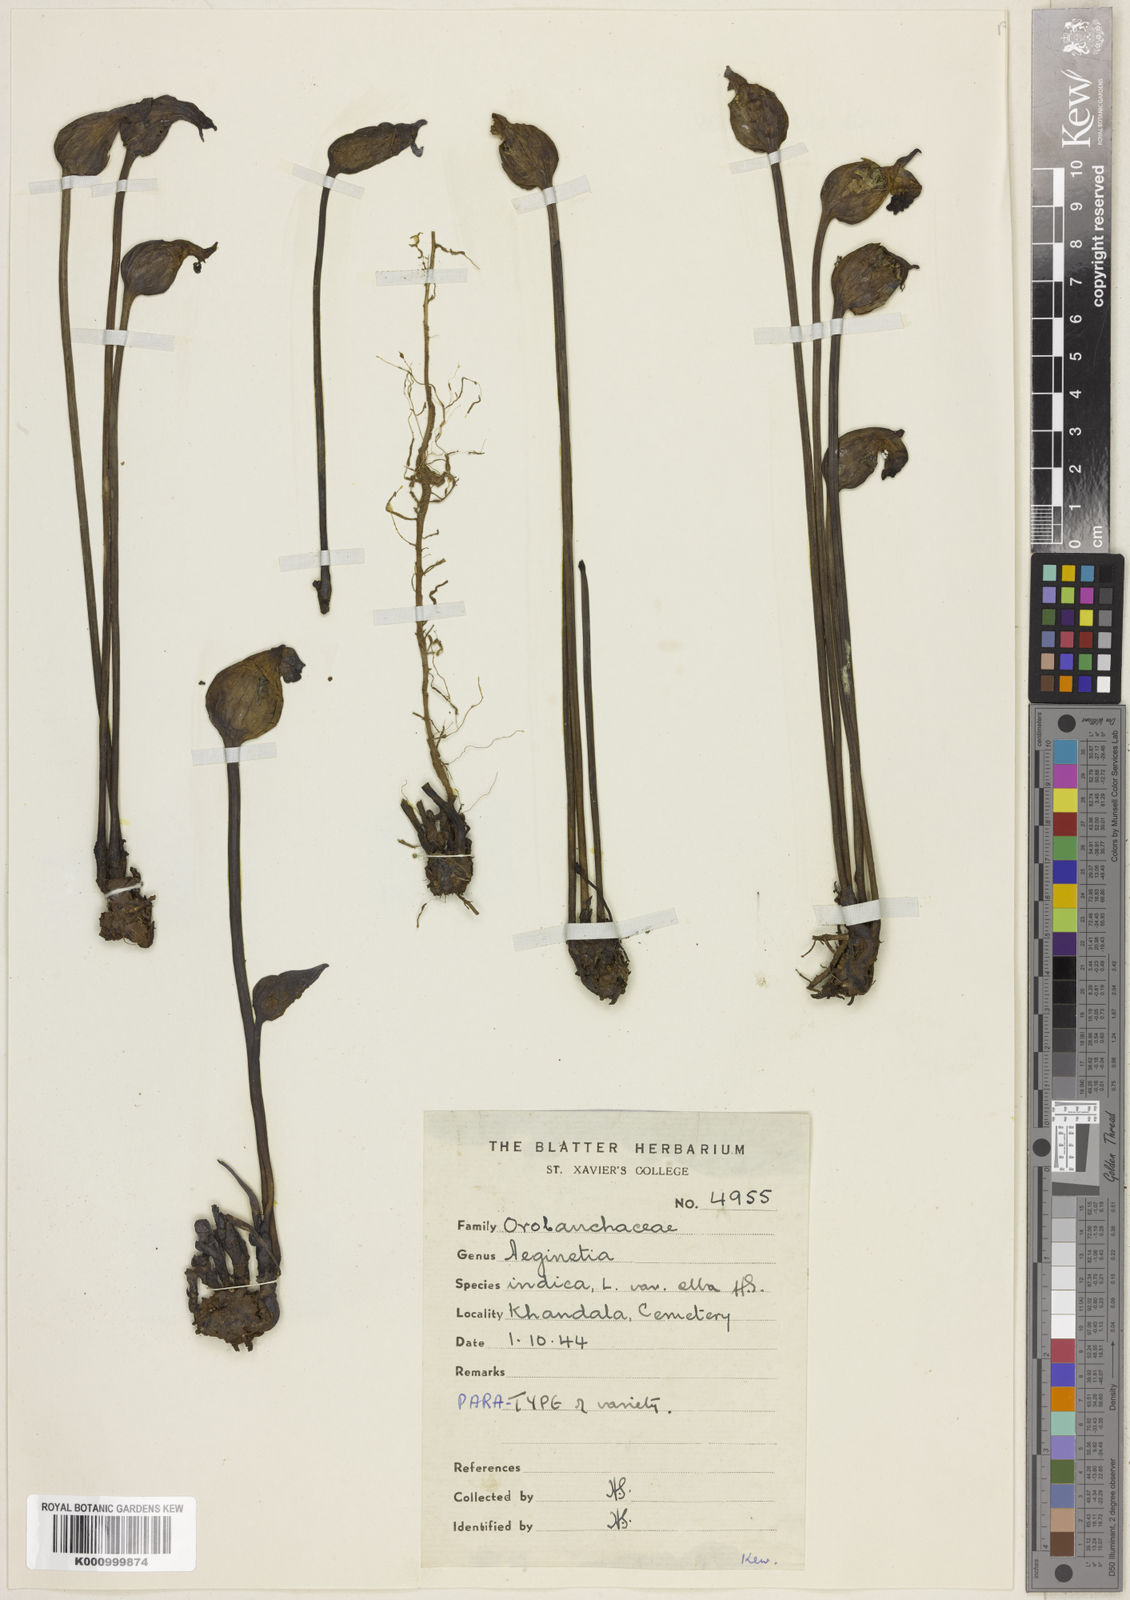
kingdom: Plantae
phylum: Tracheophyta
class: Magnoliopsida
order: Lamiales
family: Orobanchaceae
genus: Aeginetia
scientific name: Aeginetia indica
